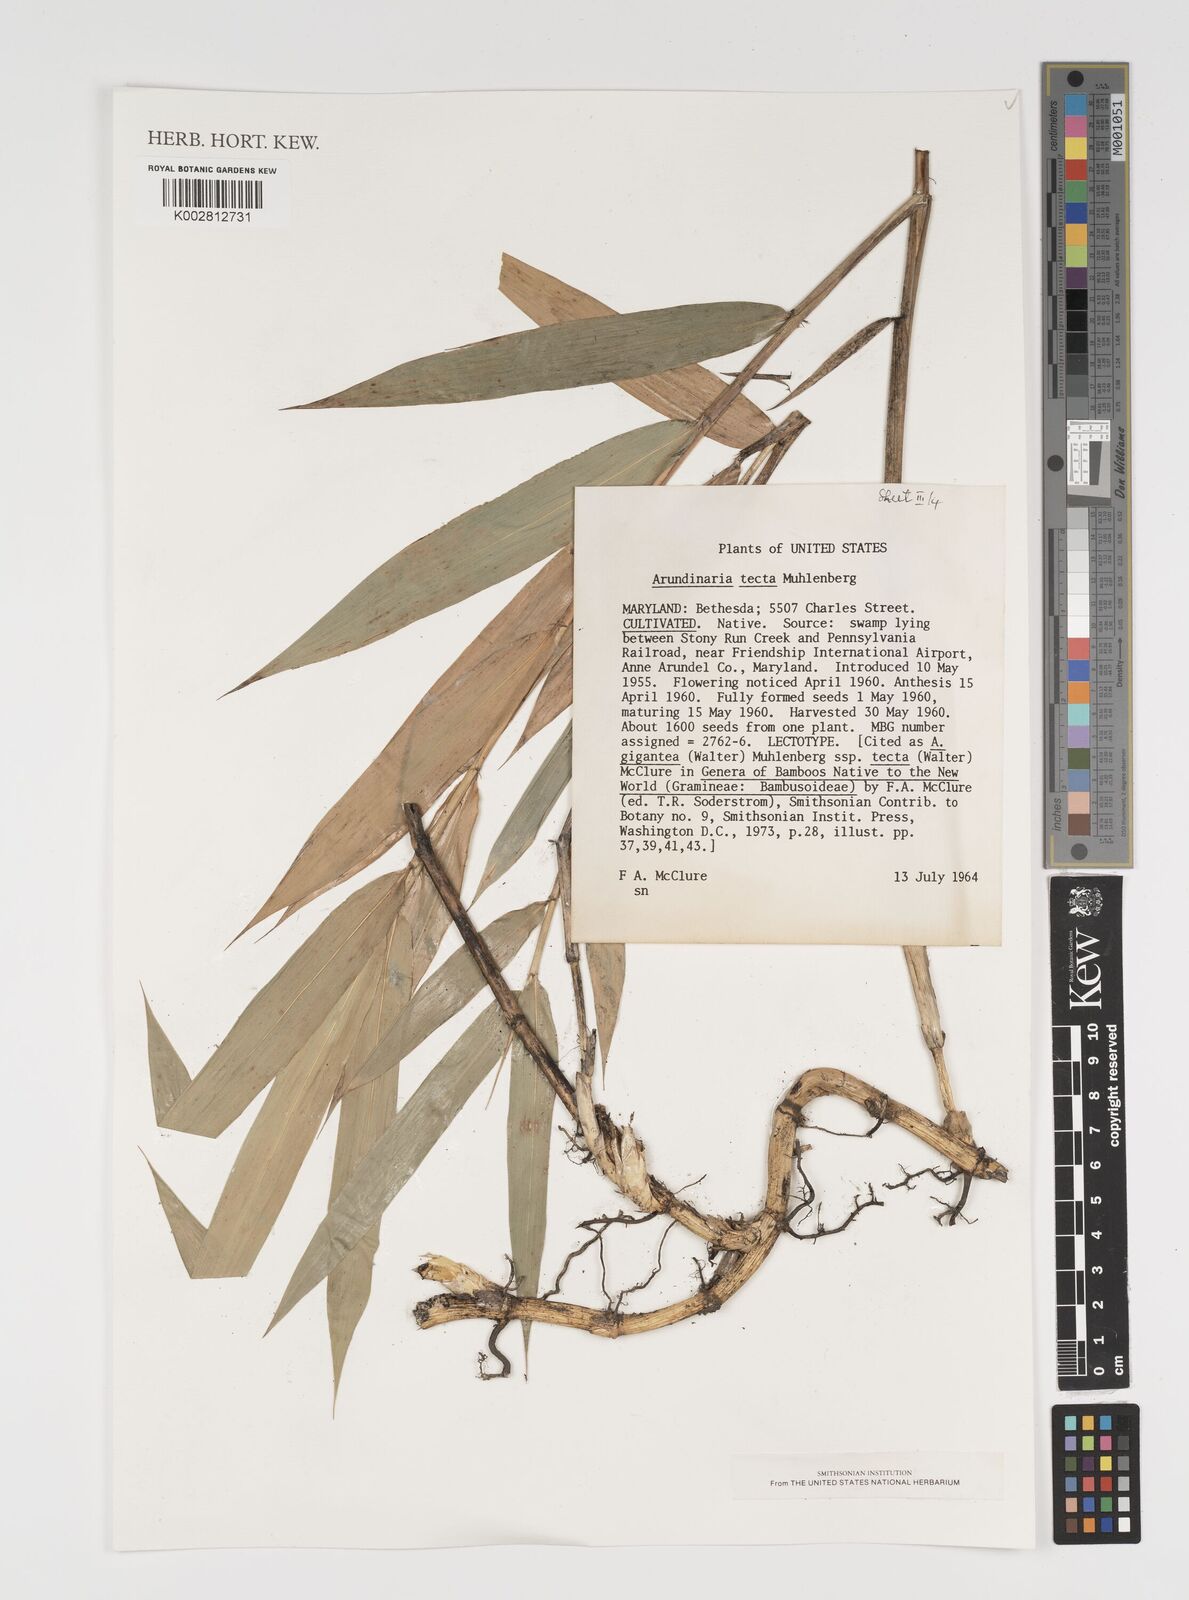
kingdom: Plantae
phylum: Tracheophyta
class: Liliopsida
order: Poales
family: Poaceae
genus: Arundinaria
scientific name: Arundinaria tecta
